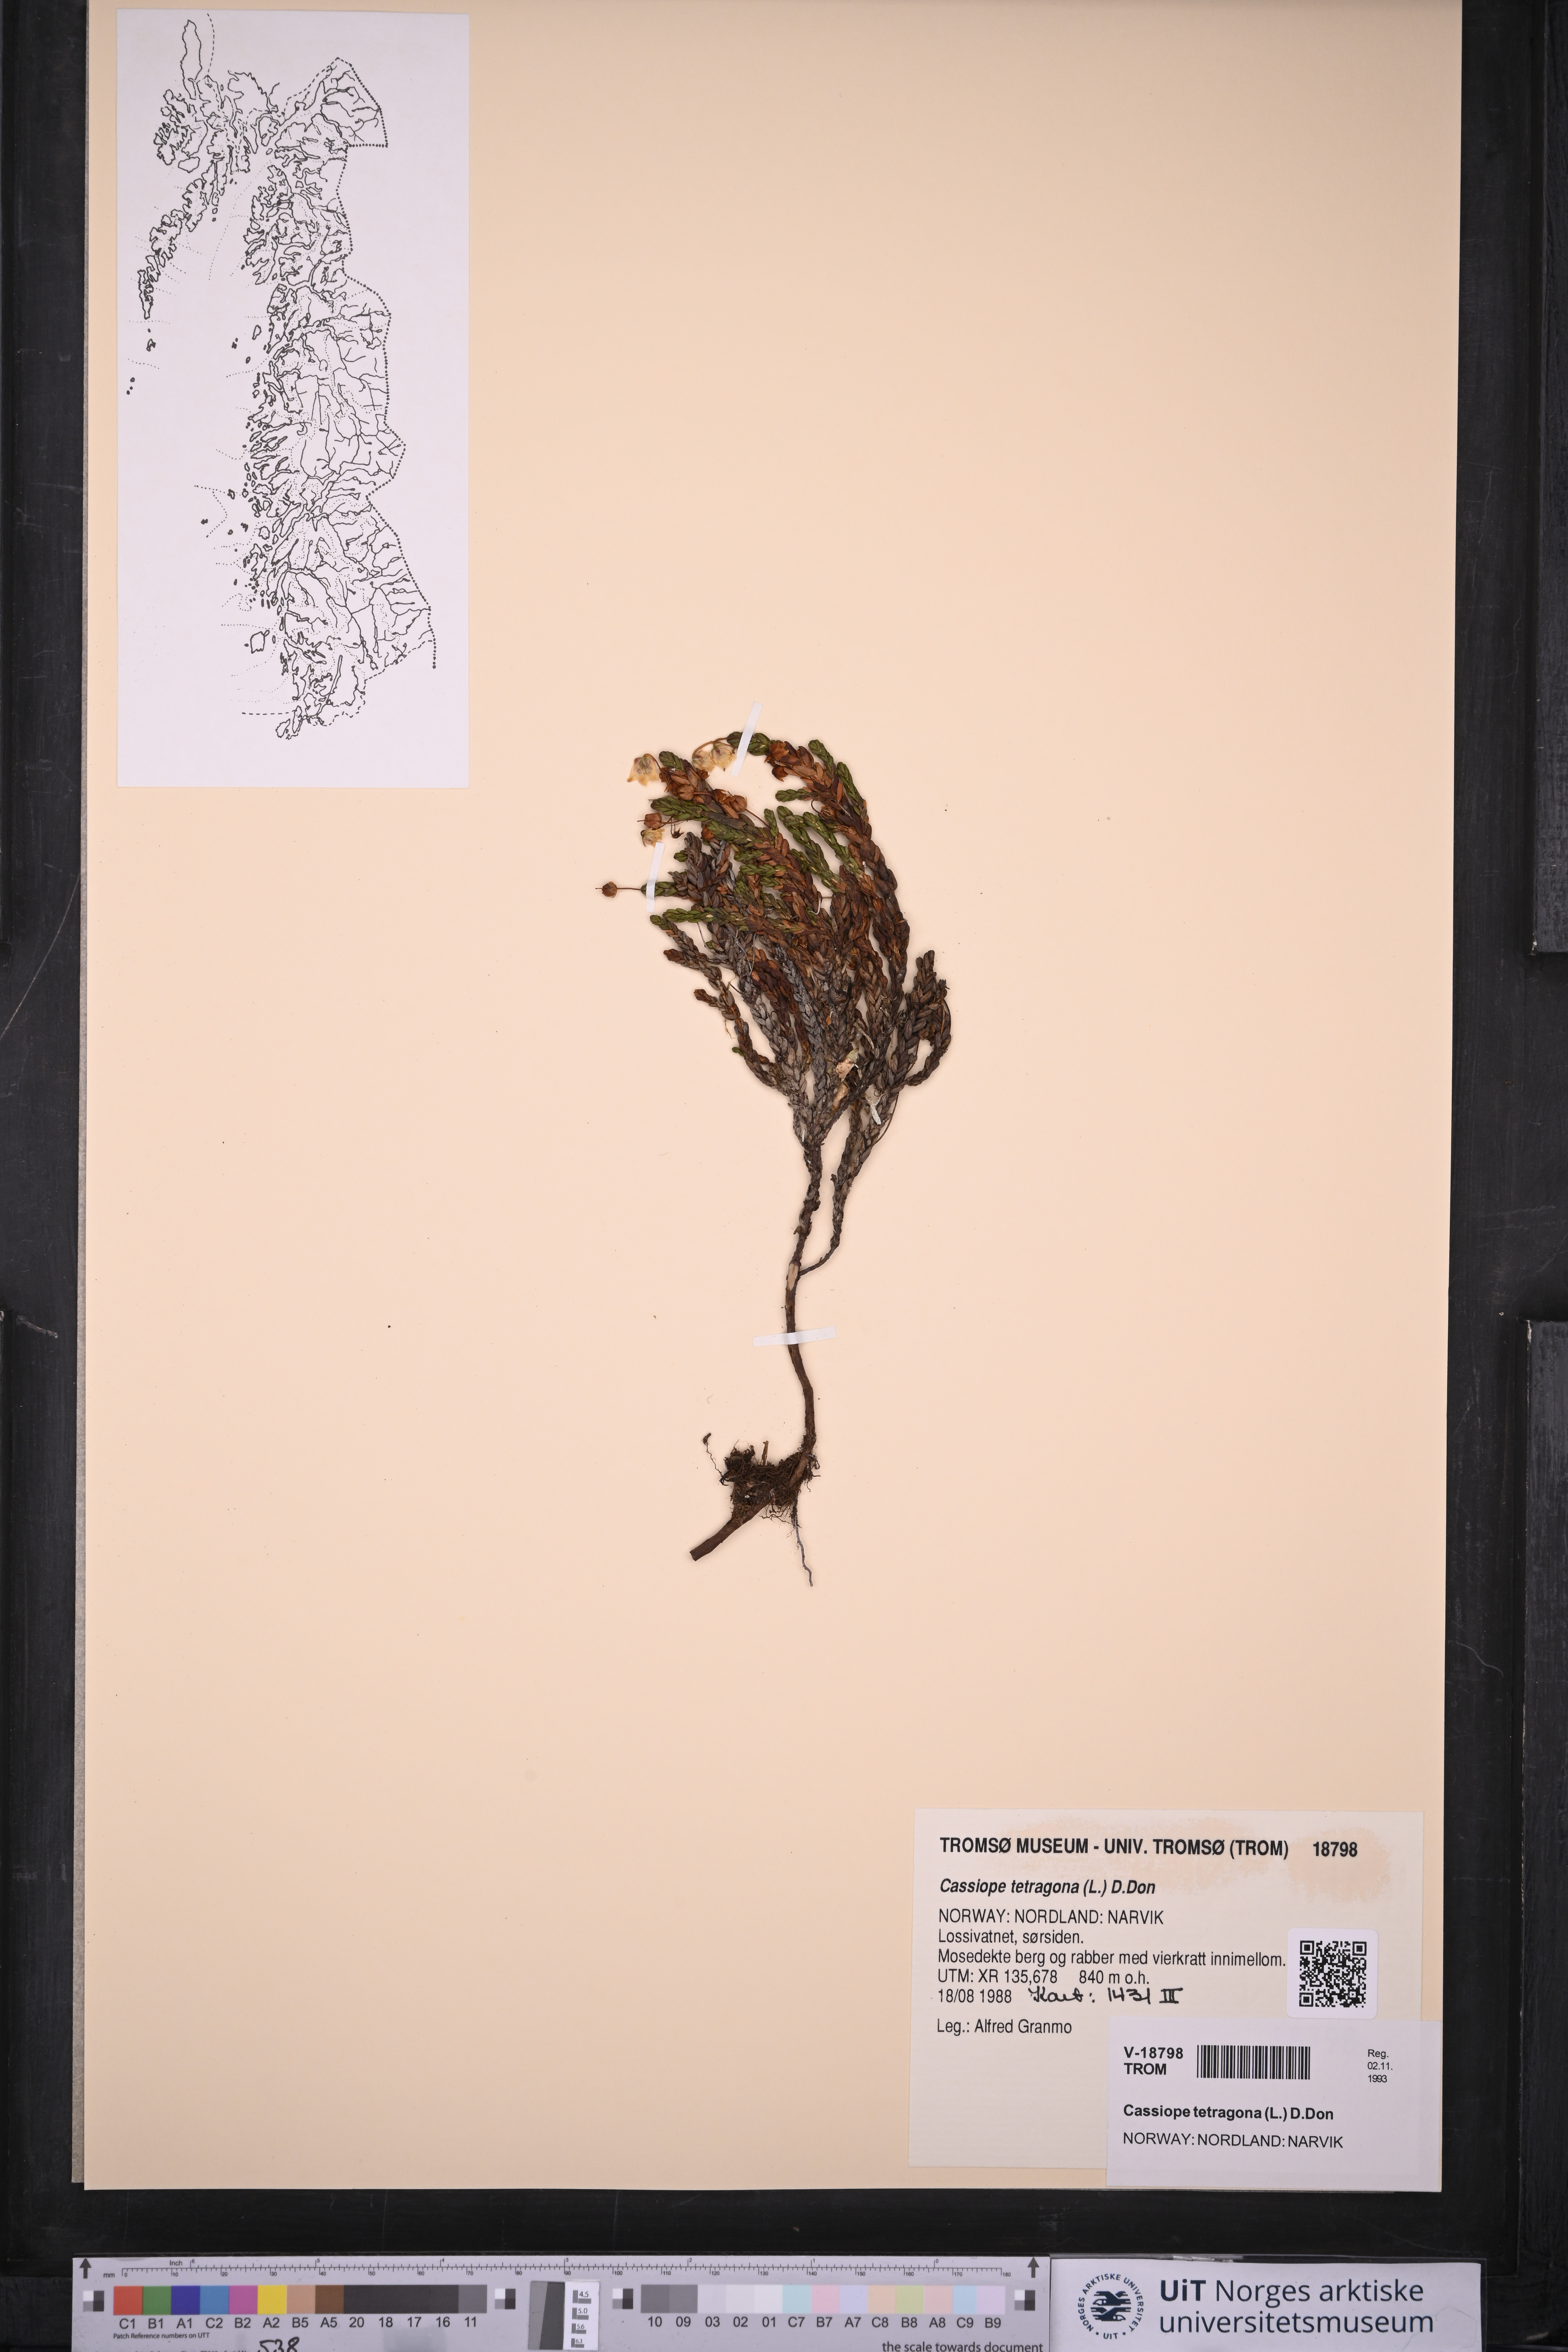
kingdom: Plantae
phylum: Tracheophyta
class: Magnoliopsida
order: Ericales
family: Ericaceae
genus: Cassiope
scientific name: Cassiope tetragona
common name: Arctic bell heather
